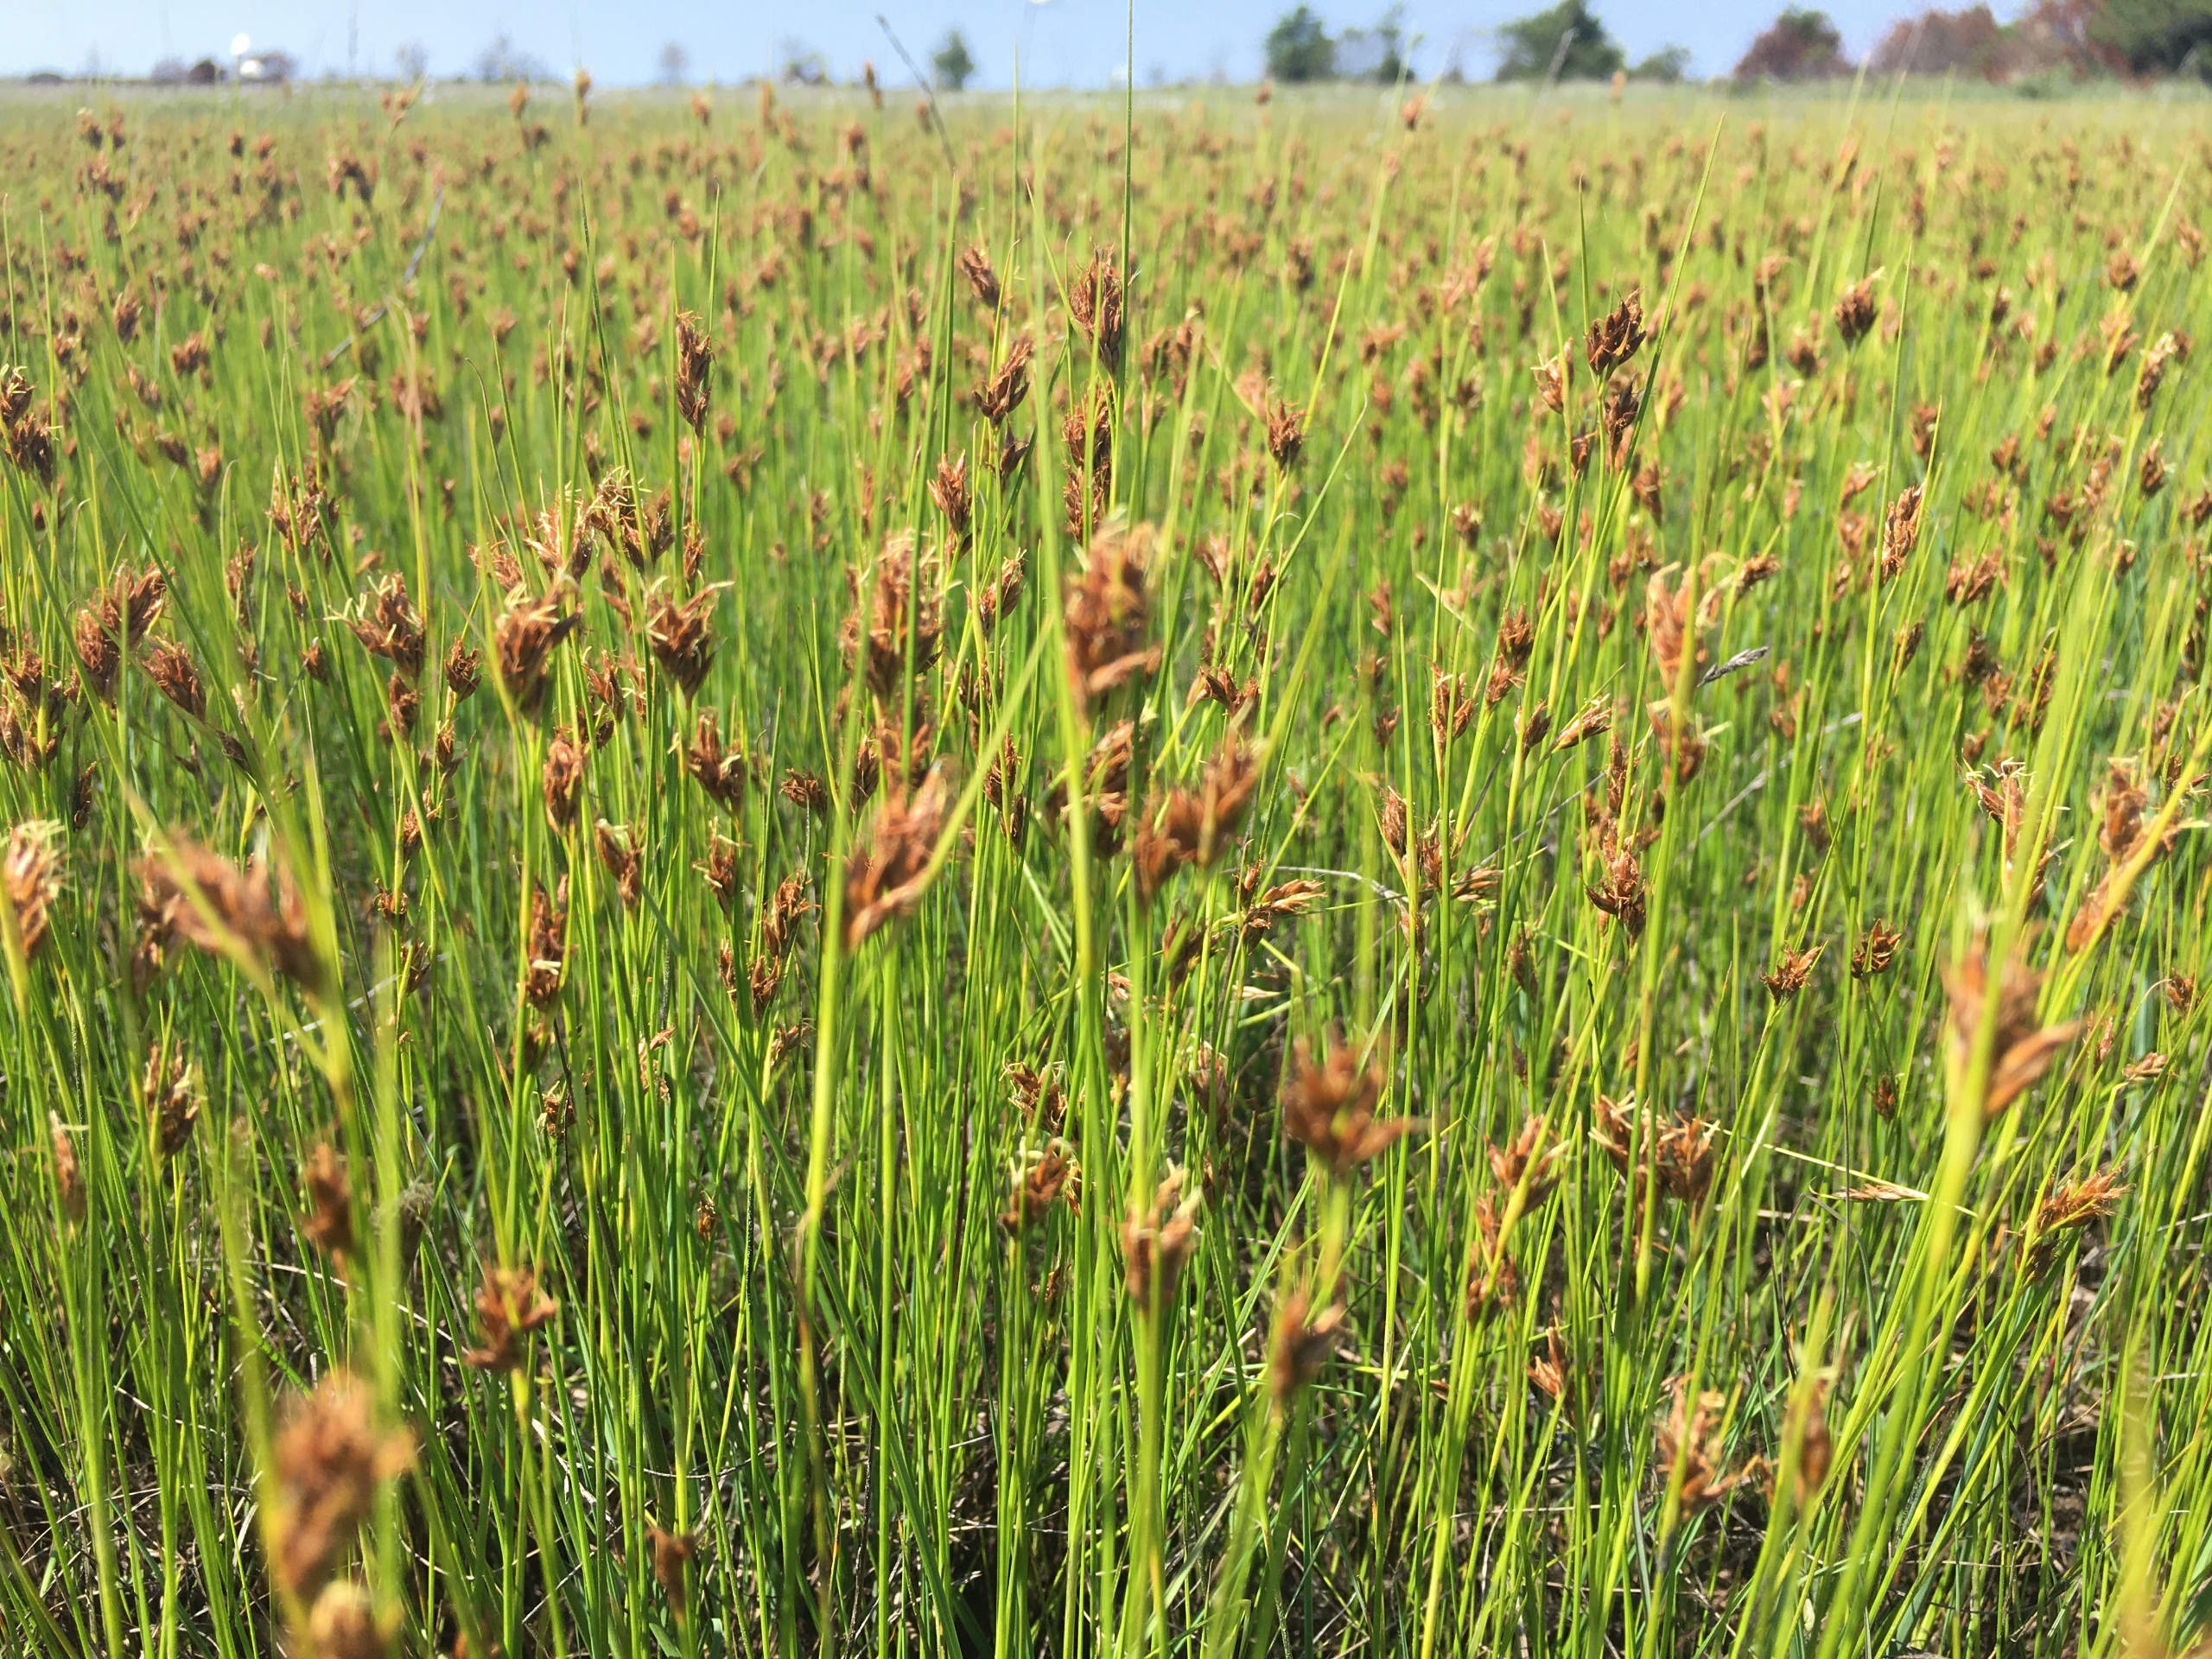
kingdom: Plantae
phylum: Tracheophyta
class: Liliopsida
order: Poales
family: Cyperaceae
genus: Rhynchospora
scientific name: Rhynchospora fusca
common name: Brun næbfrø
